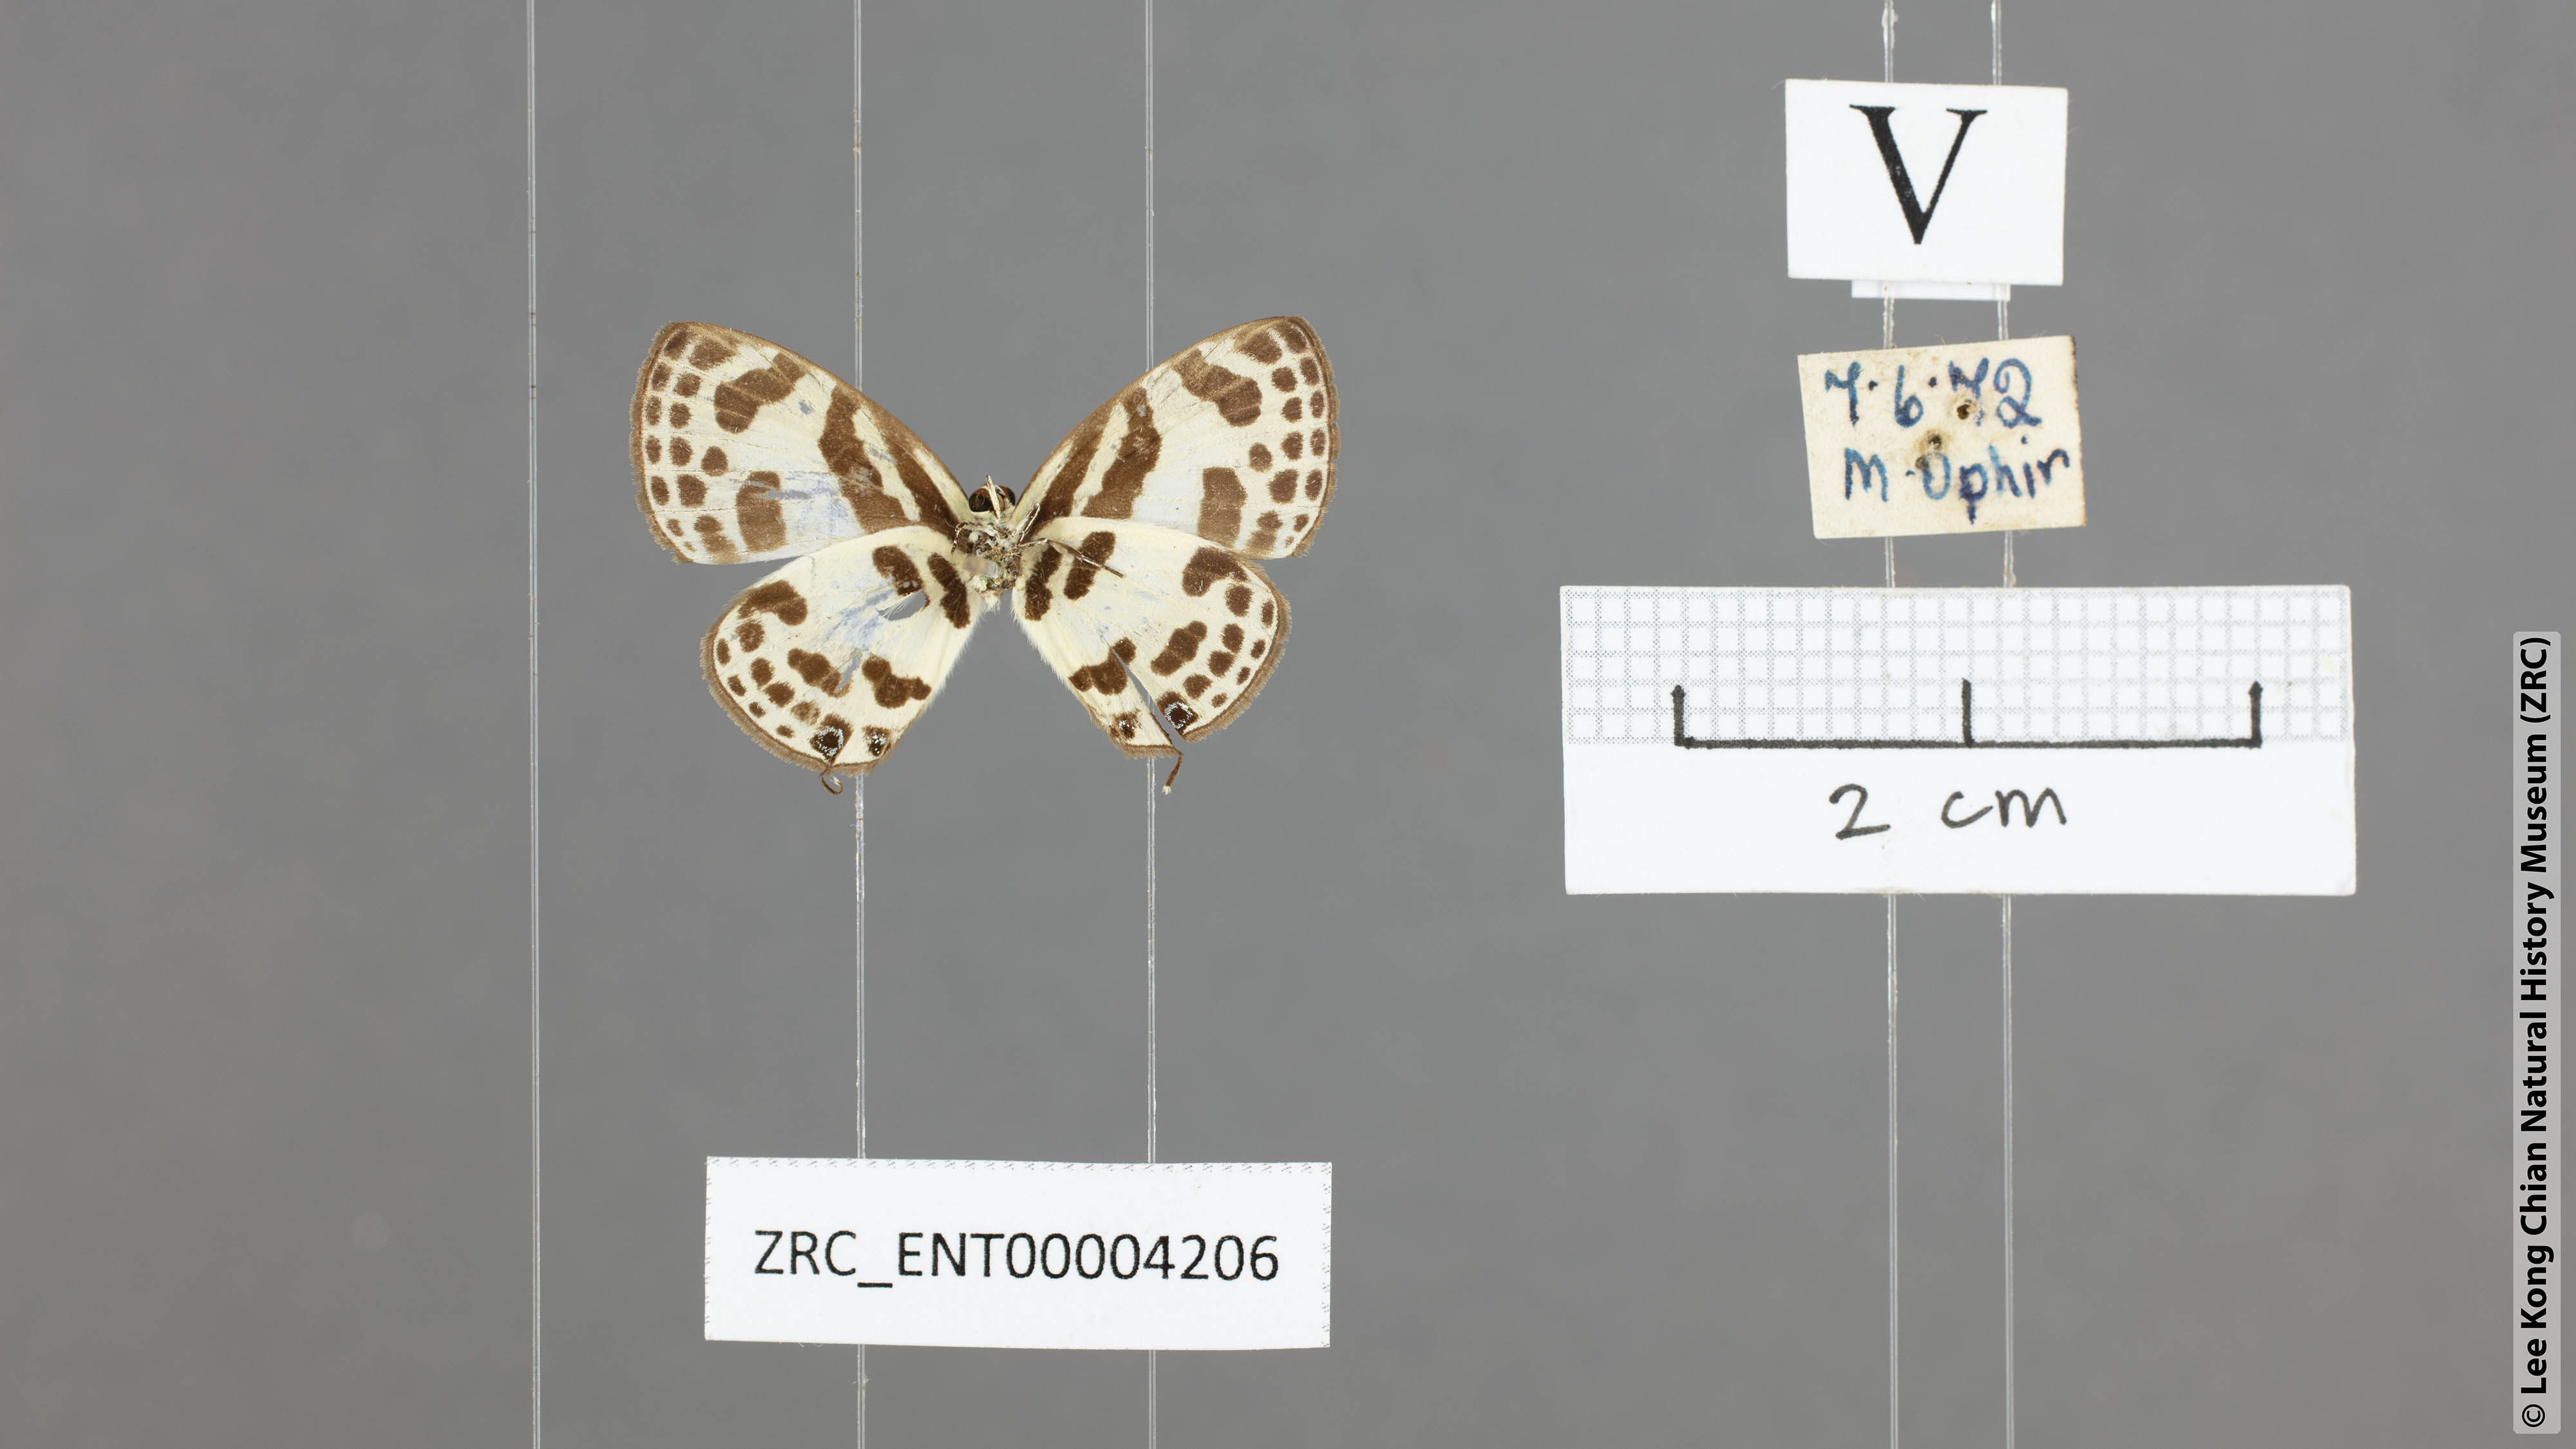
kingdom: Animalia
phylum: Arthropoda
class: Insecta
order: Lepidoptera
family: Lycaenidae
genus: Discolampa
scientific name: Discolampa ethion
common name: Banded blue pierrot
